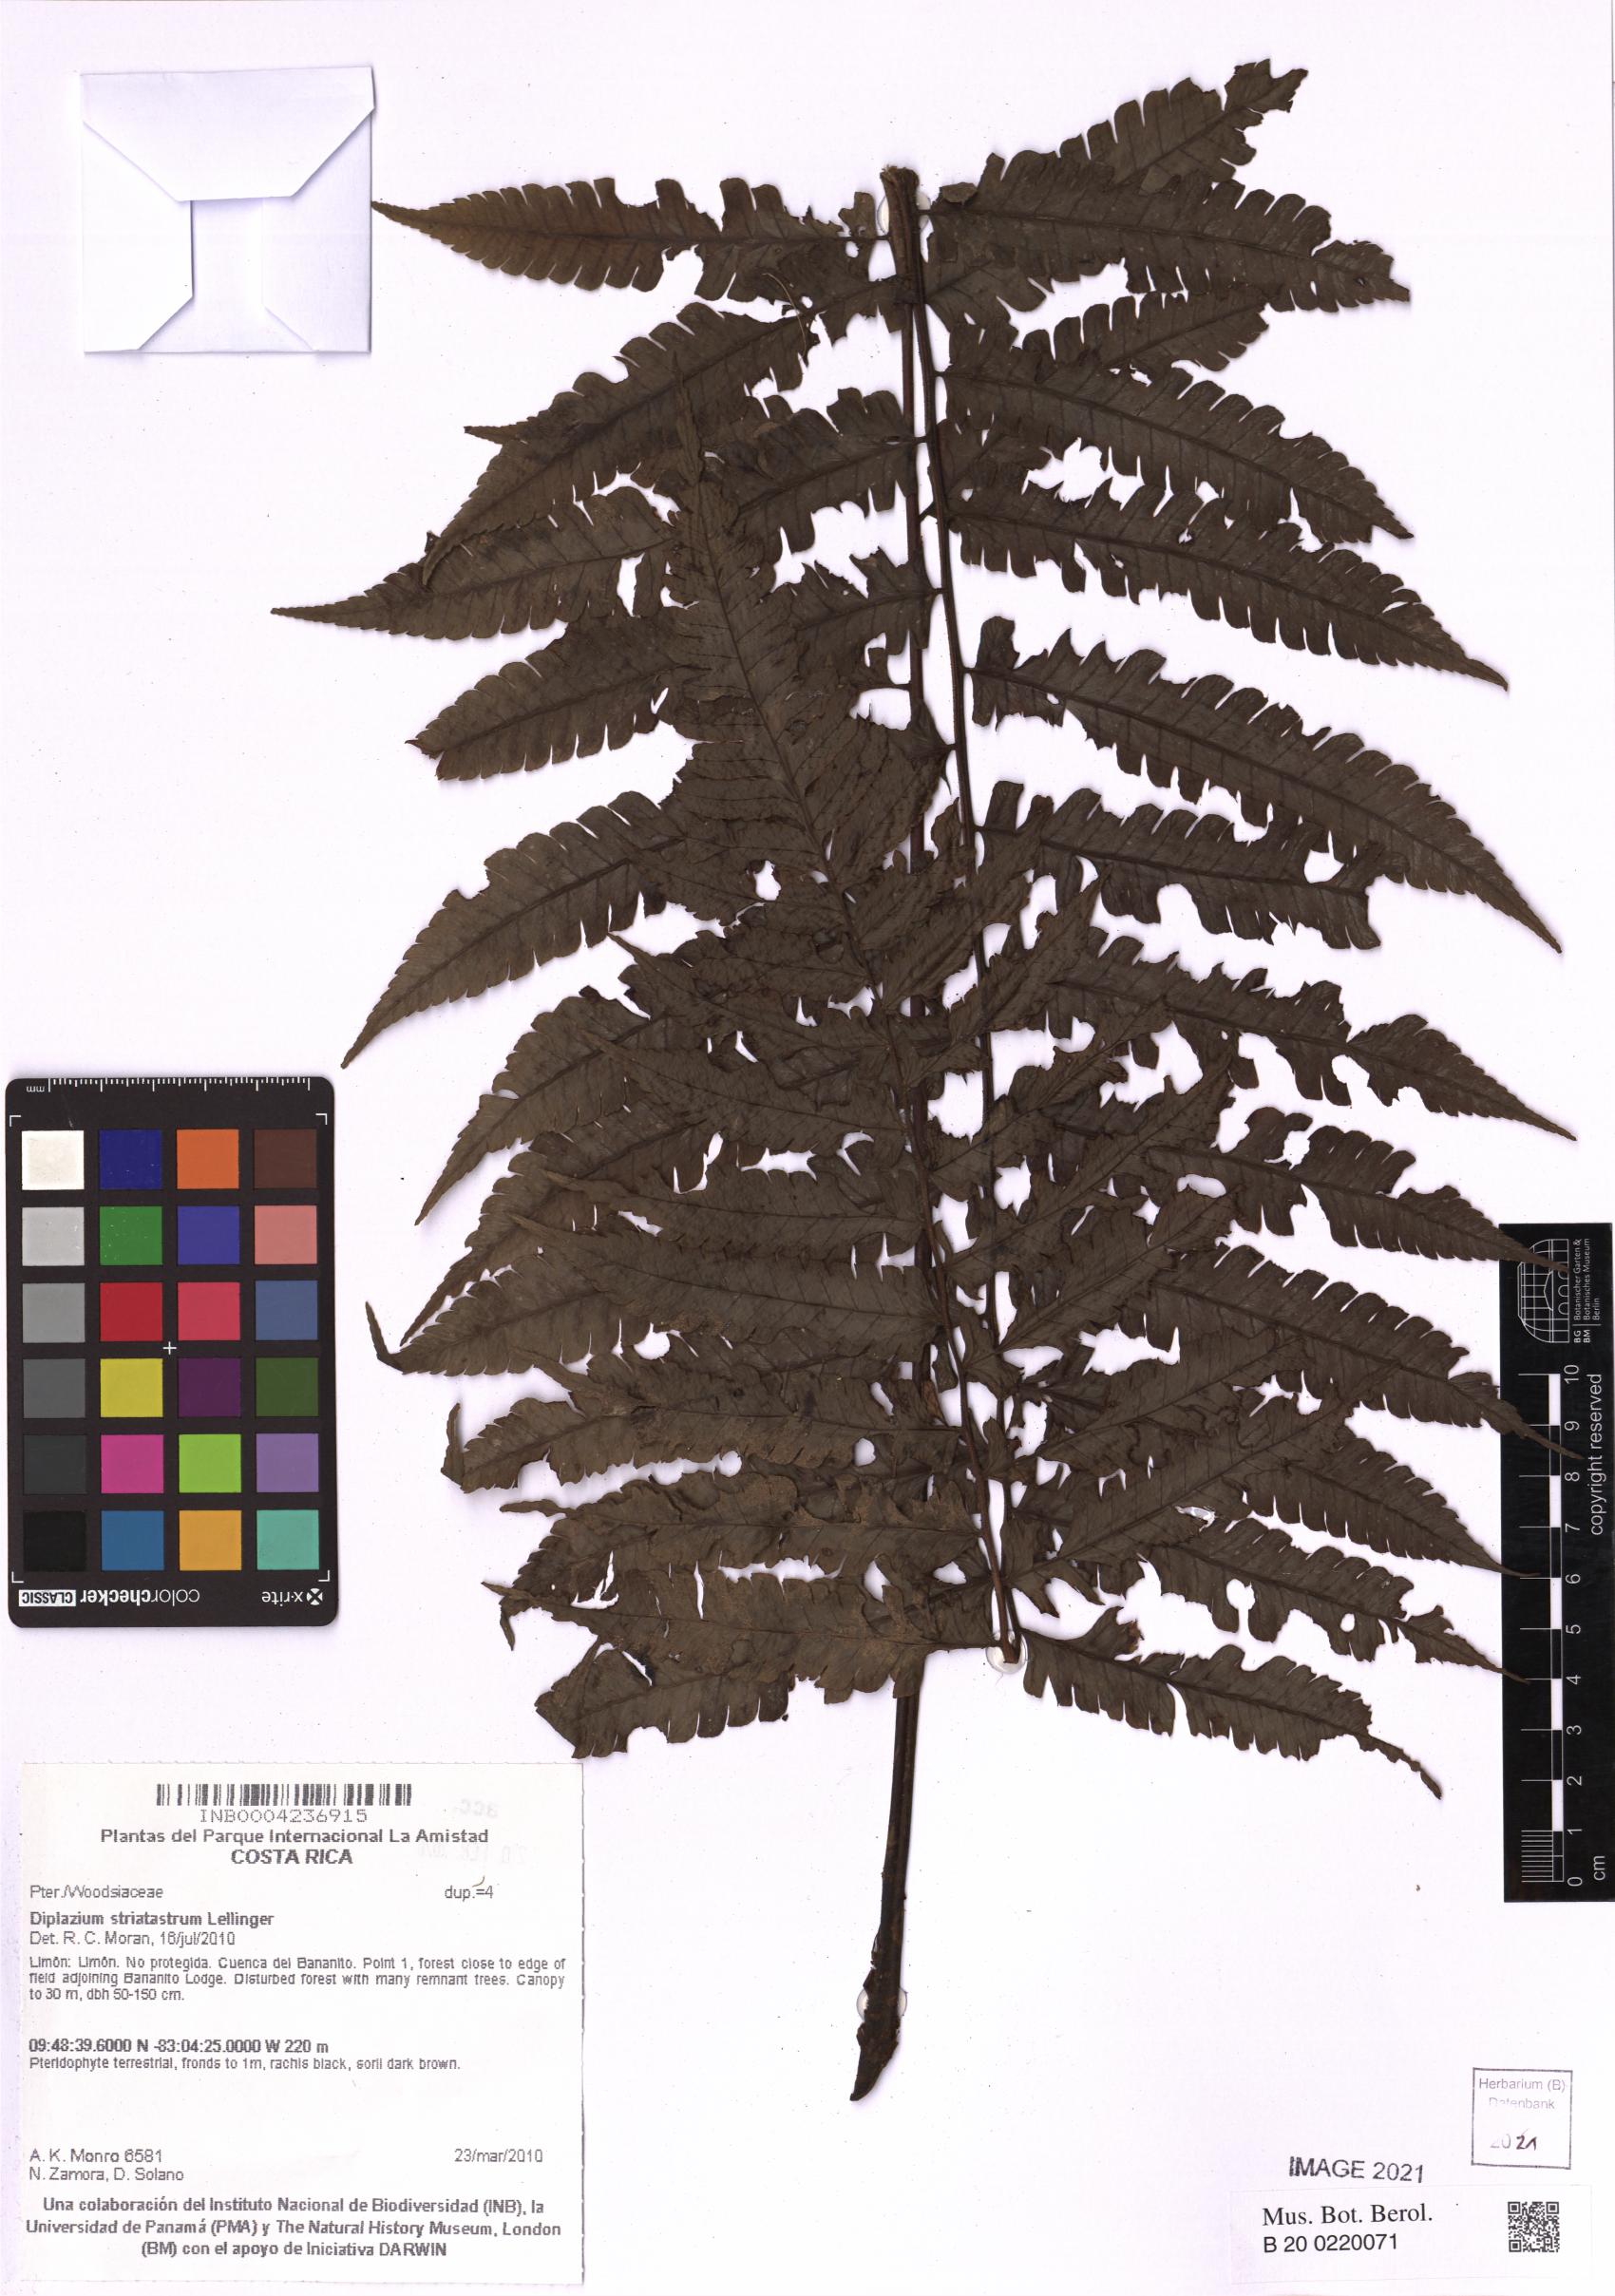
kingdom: Plantae
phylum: Tracheophyta
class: Polypodiopsida
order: Polypodiales
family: Athyriaceae
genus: Diplazium
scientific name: Diplazium striatastrum
